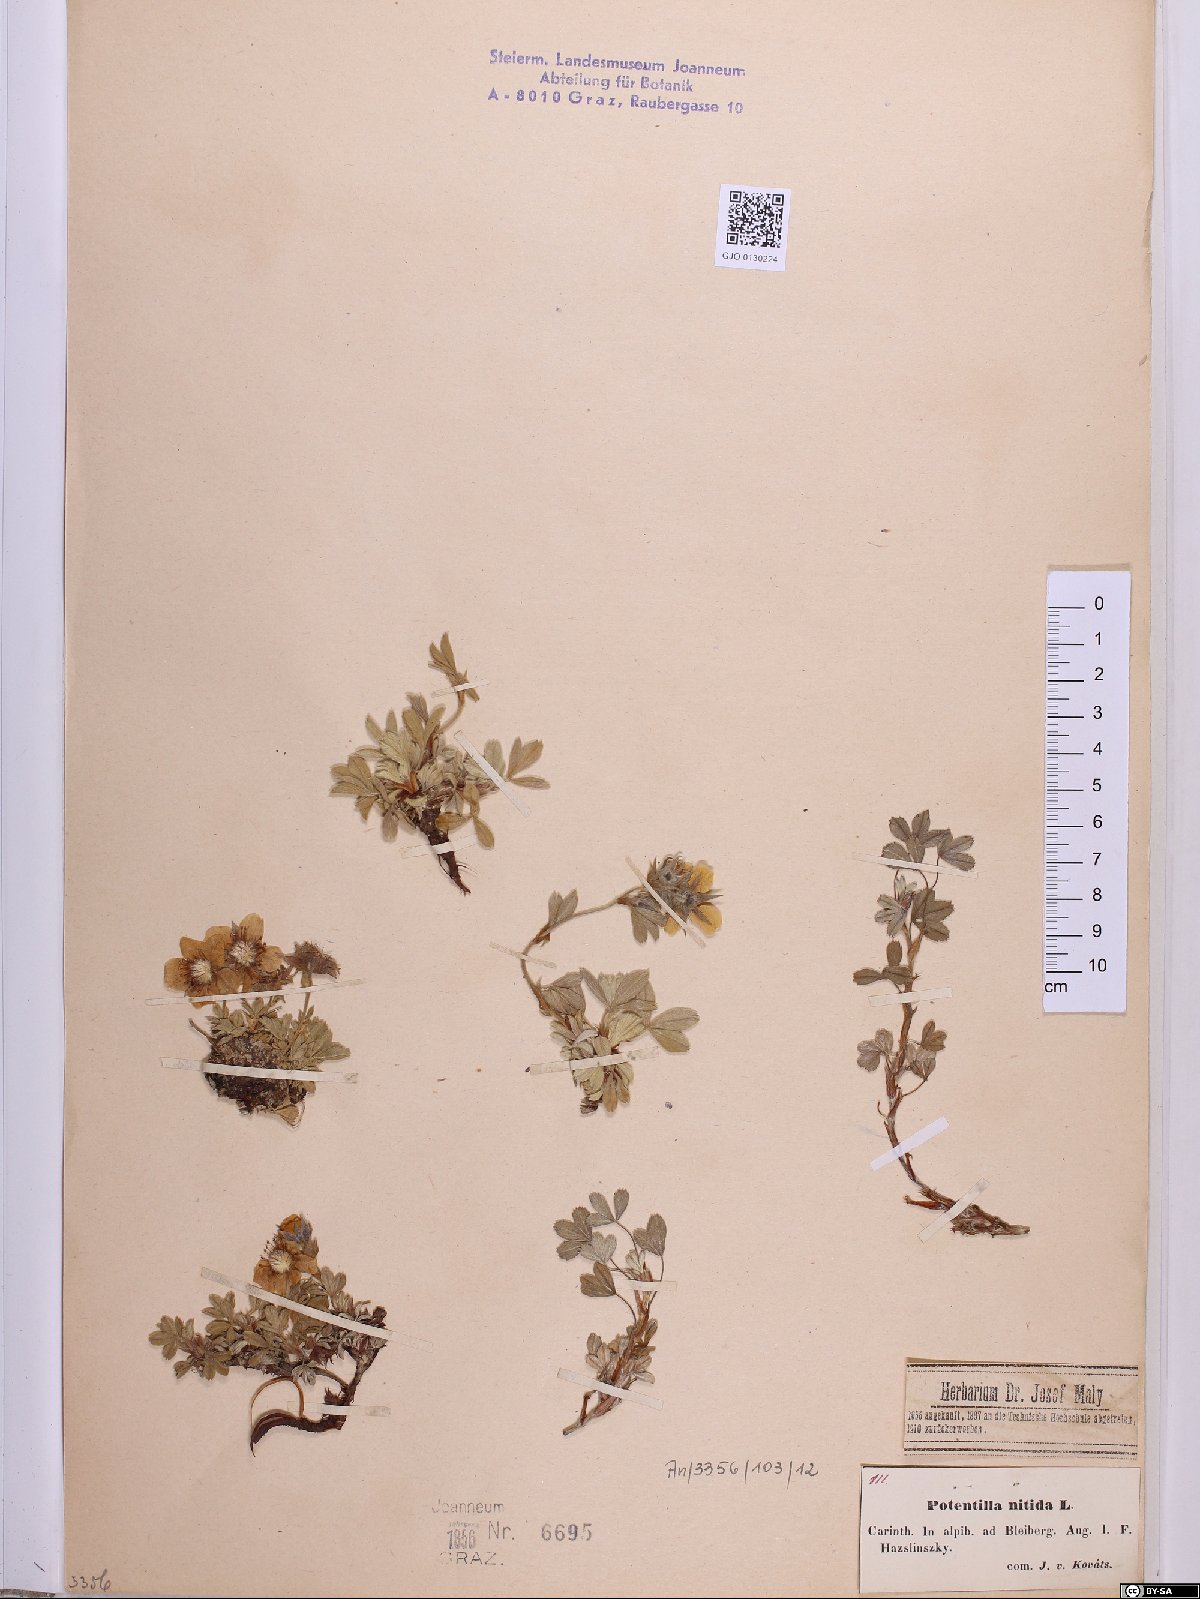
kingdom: Plantae
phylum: Tracheophyta
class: Magnoliopsida
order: Rosales
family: Rosaceae
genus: Potentilla
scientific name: Potentilla nitida
